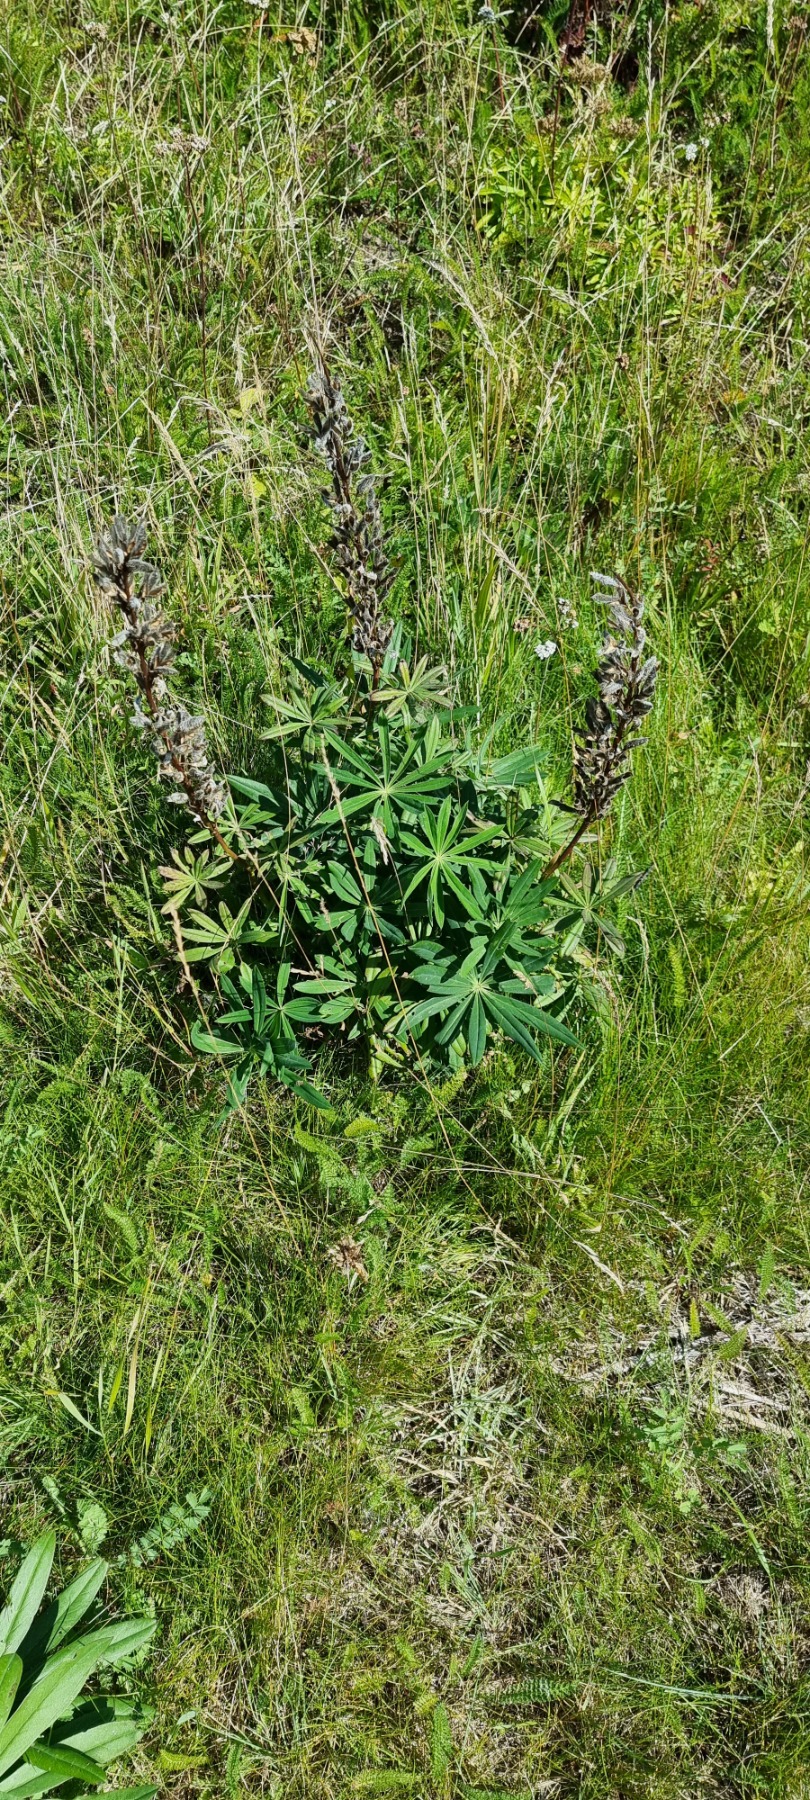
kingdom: Plantae
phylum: Tracheophyta
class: Magnoliopsida
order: Fabales
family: Fabaceae
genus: Lupinus
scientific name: Lupinus polyphyllus
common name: Mangebladet lupin
